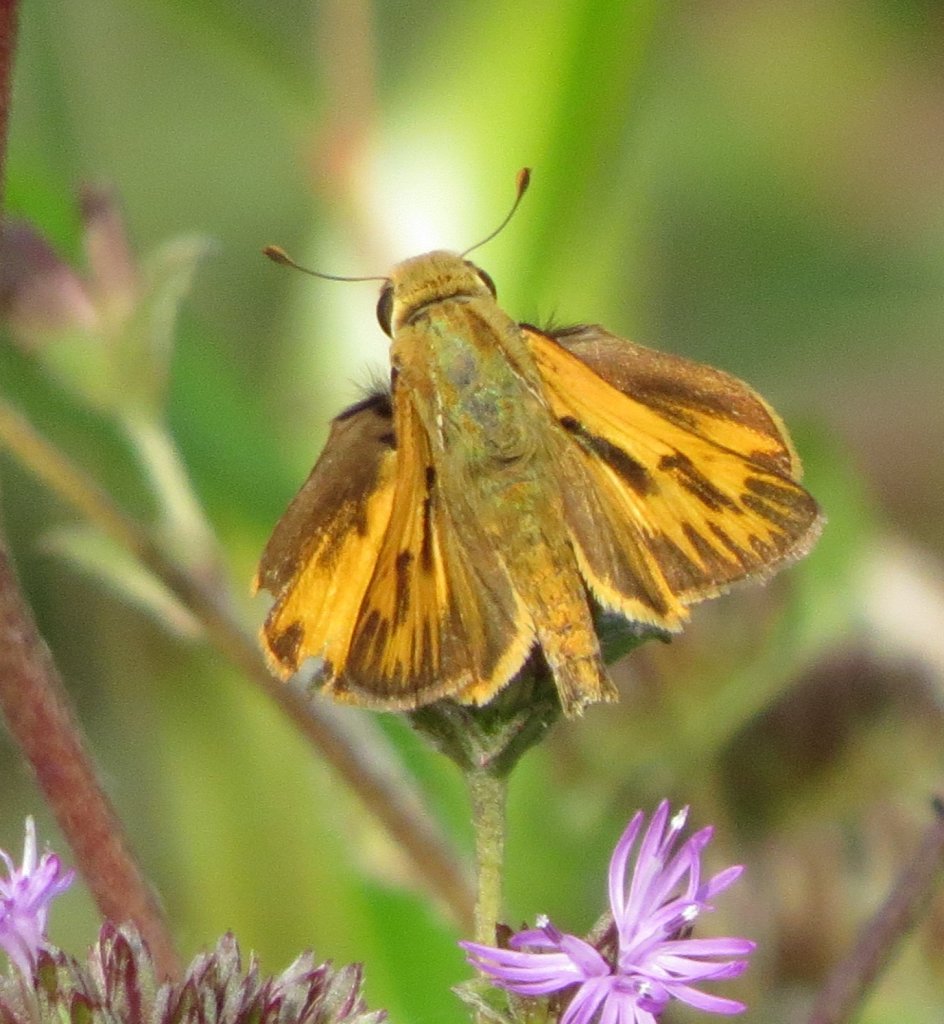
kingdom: Animalia
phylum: Arthropoda
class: Insecta
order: Lepidoptera
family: Hesperiidae
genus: Hylephila
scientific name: Hylephila phyleus
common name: Fiery Skipper
